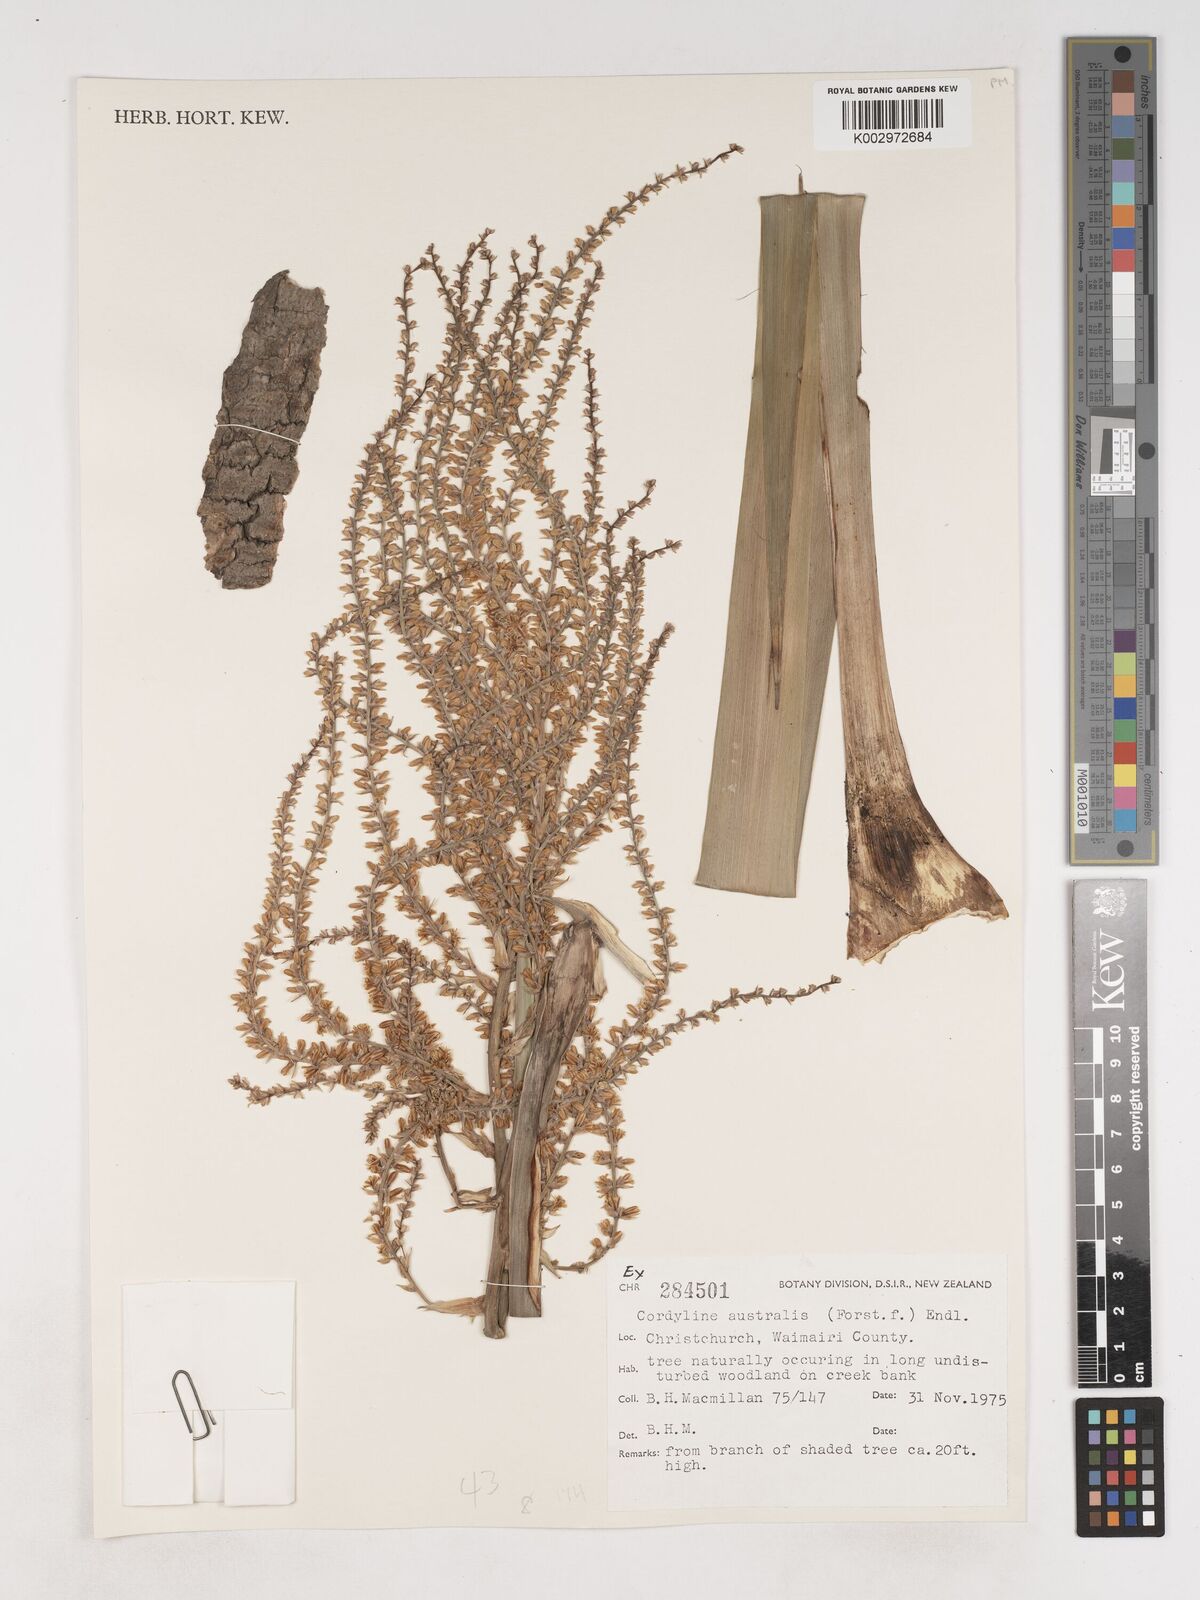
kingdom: Plantae
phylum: Tracheophyta
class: Liliopsida
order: Asparagales
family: Asparagaceae
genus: Cordyline
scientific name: Cordyline australis
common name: Cabbage-palm
